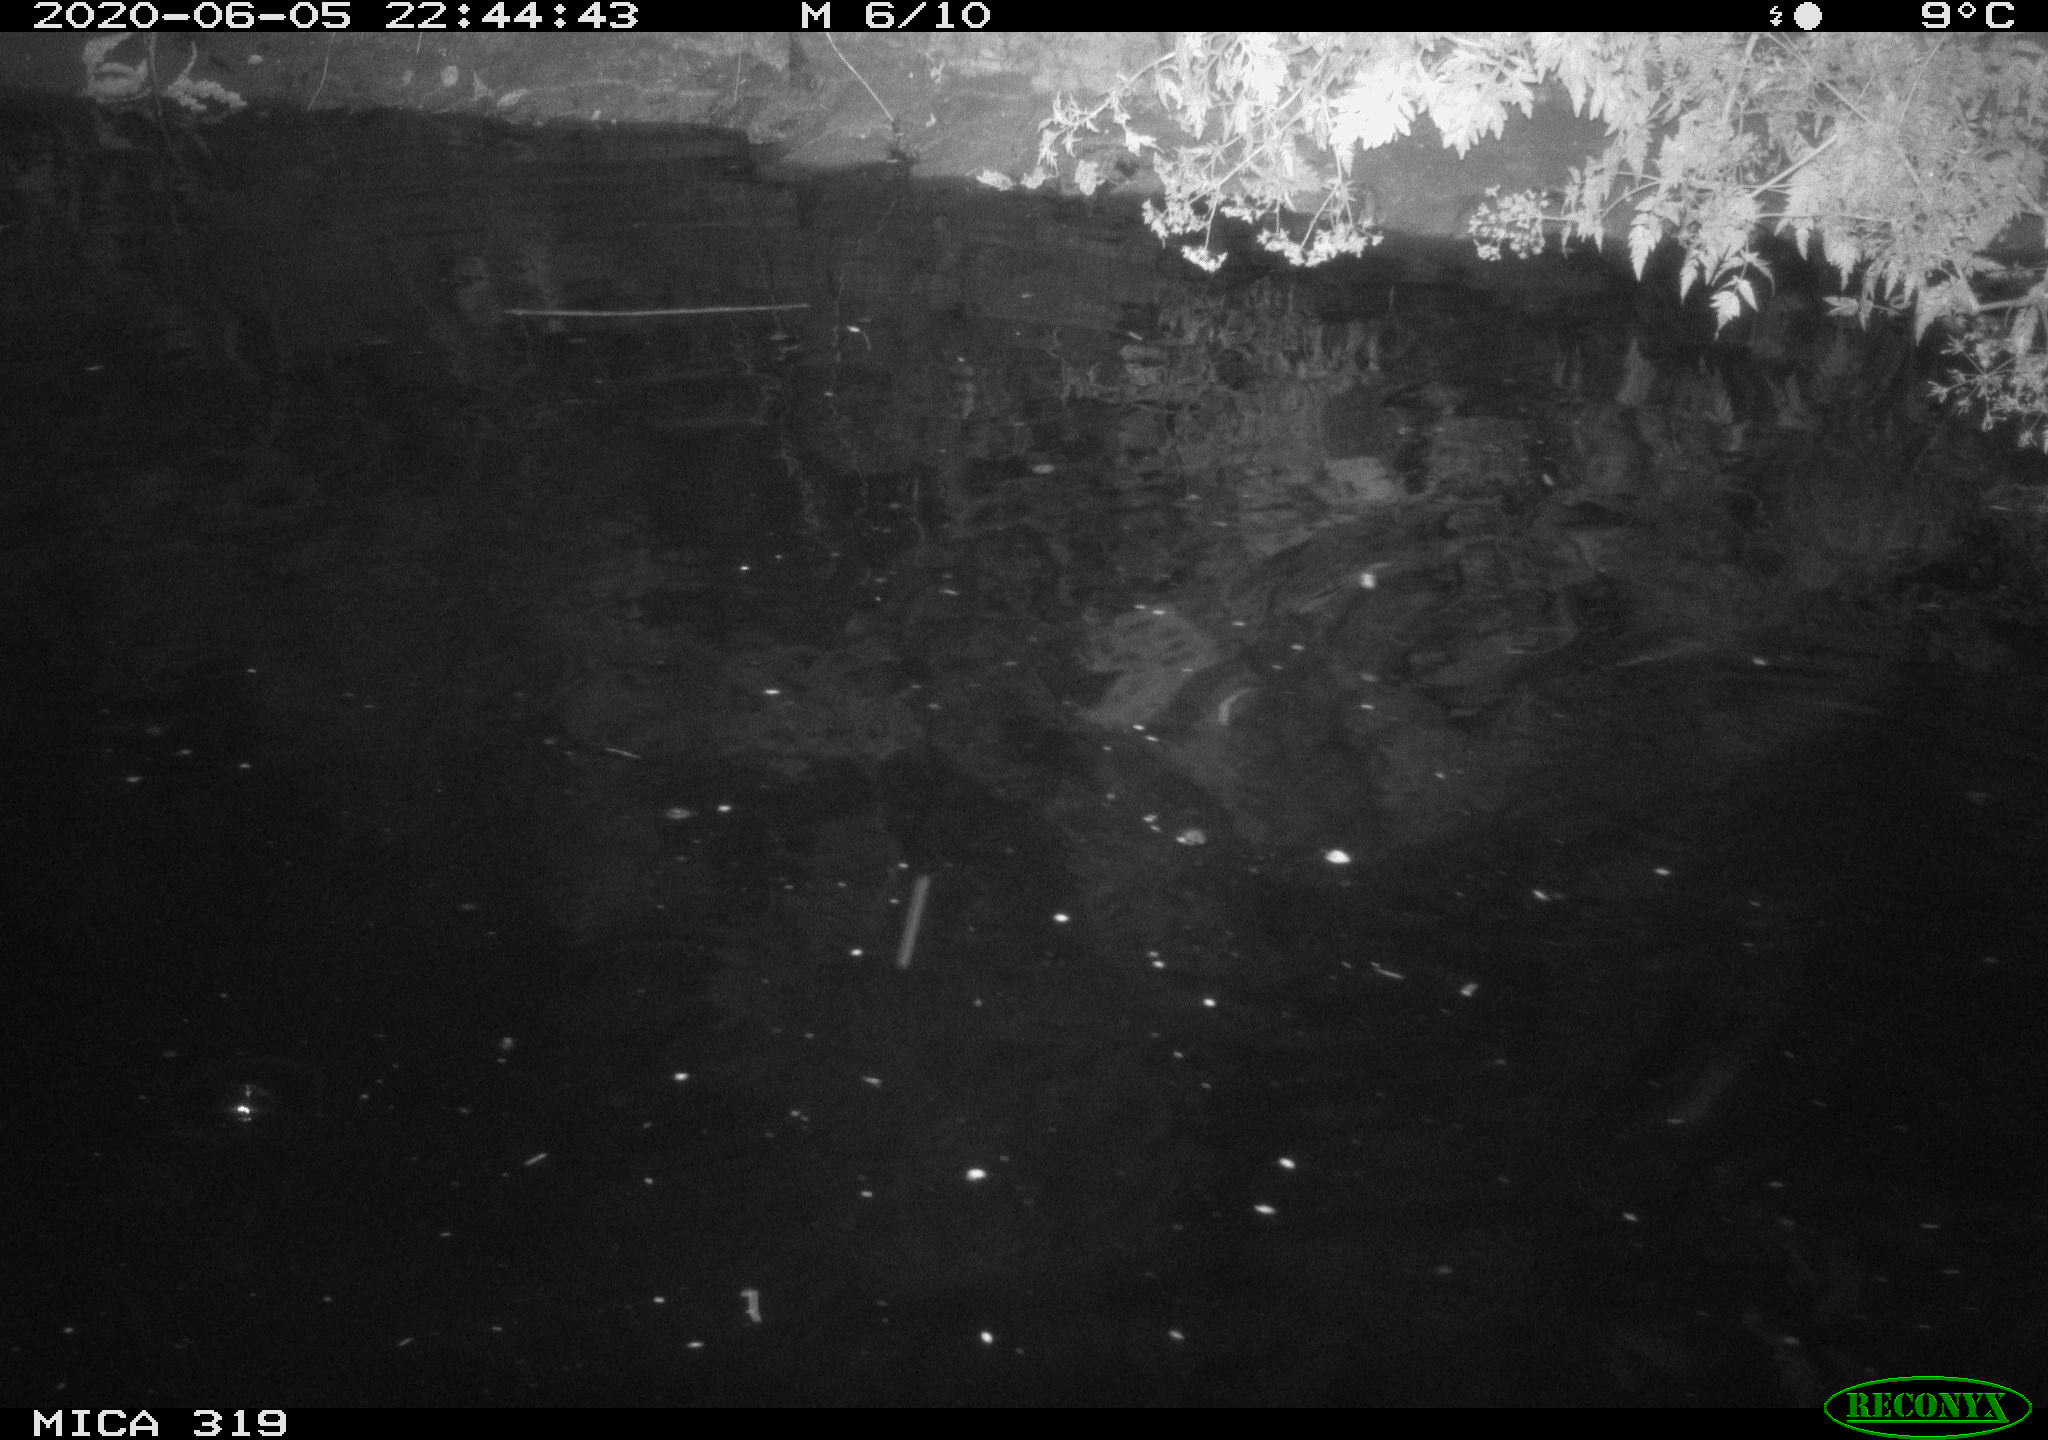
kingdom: Animalia
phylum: Chordata
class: Aves
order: Anseriformes
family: Anatidae
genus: Anas
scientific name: Anas platyrhynchos
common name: Mallard
